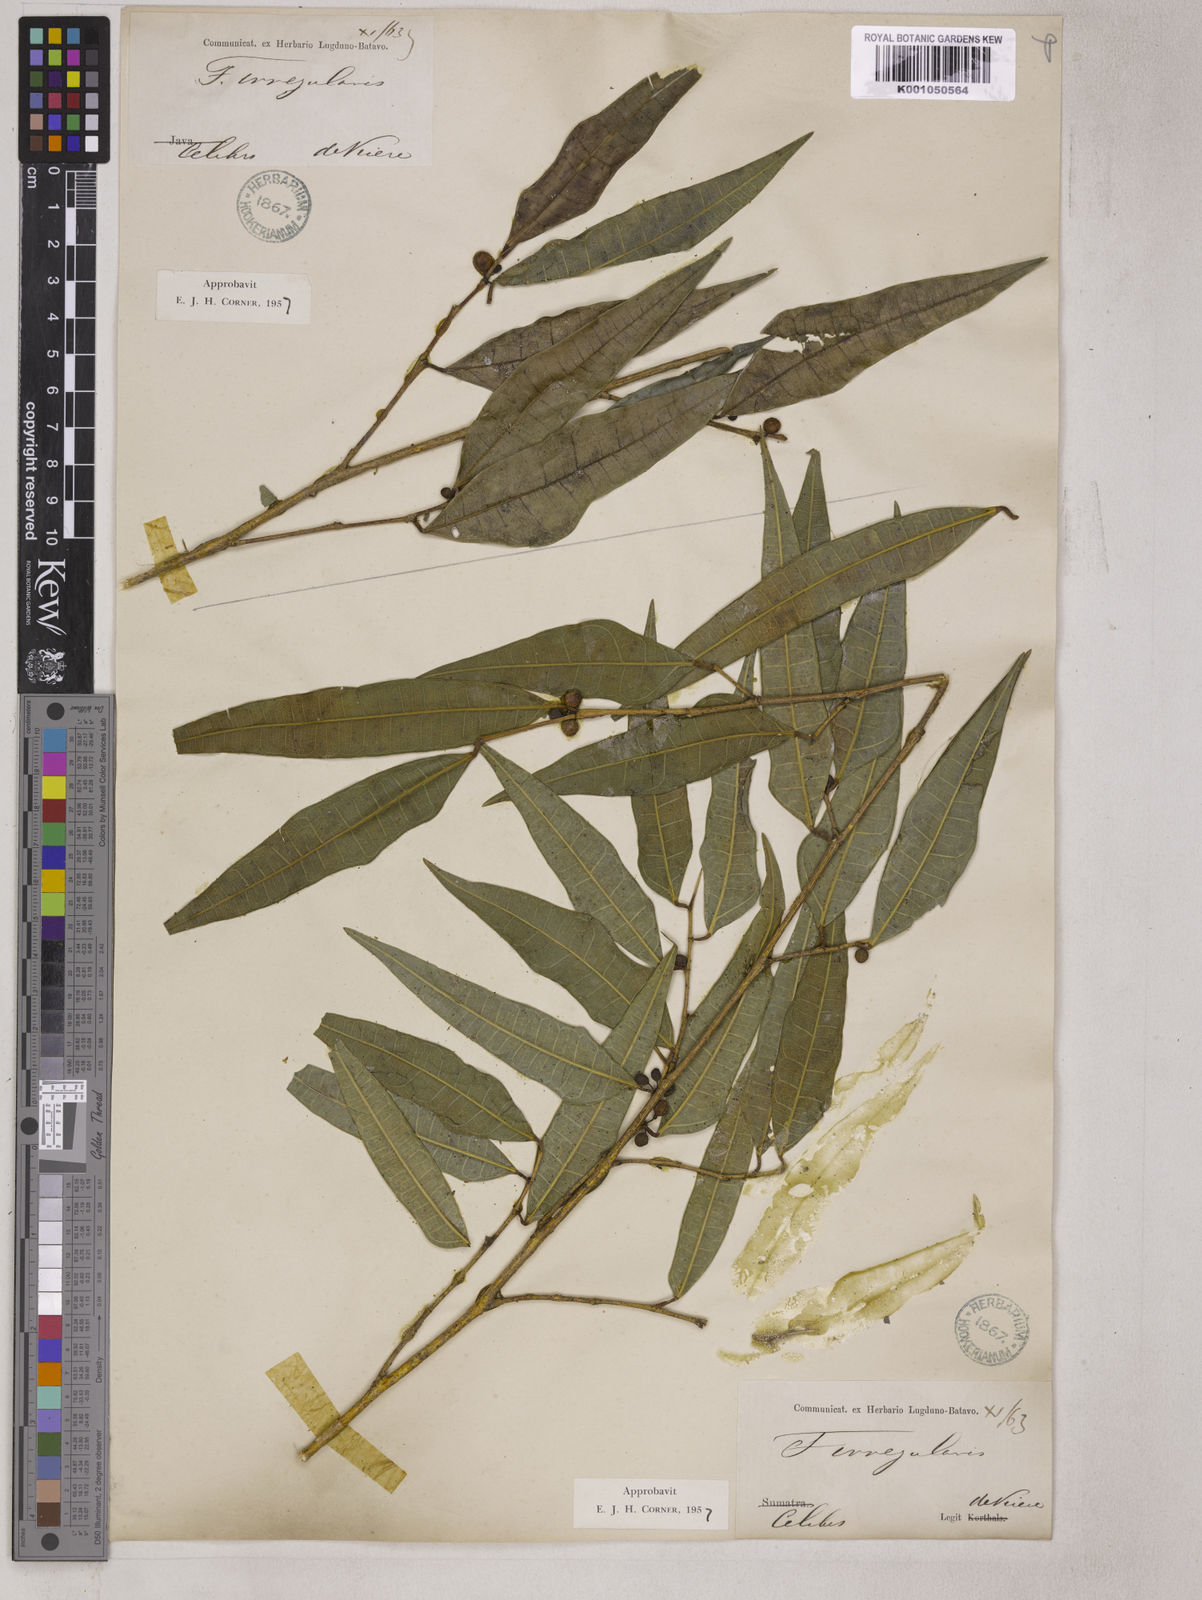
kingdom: Plantae
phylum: Tracheophyta
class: Magnoliopsida
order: Rosales
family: Moraceae
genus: Ficus
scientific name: Ficus celebensis
